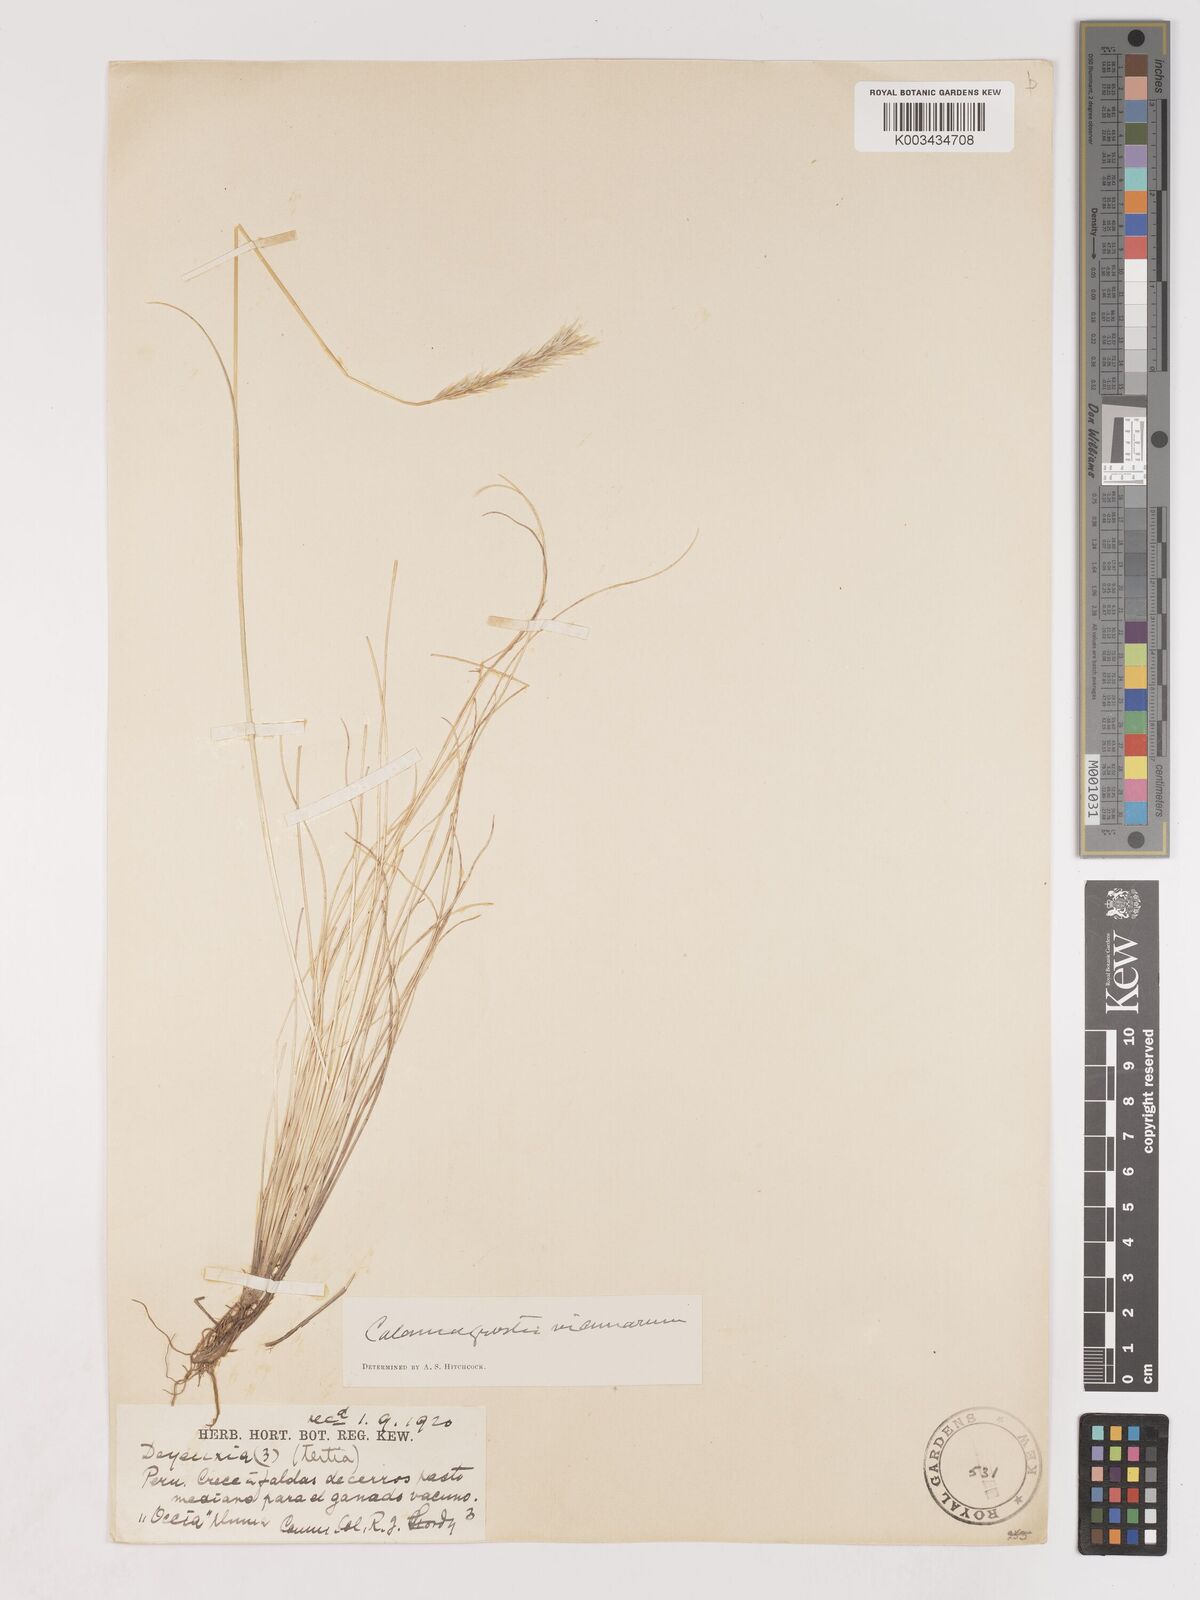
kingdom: Plantae
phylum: Tracheophyta
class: Liliopsida
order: Poales
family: Poaceae
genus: Cinnagrostis
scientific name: Cinnagrostis vicunarum
